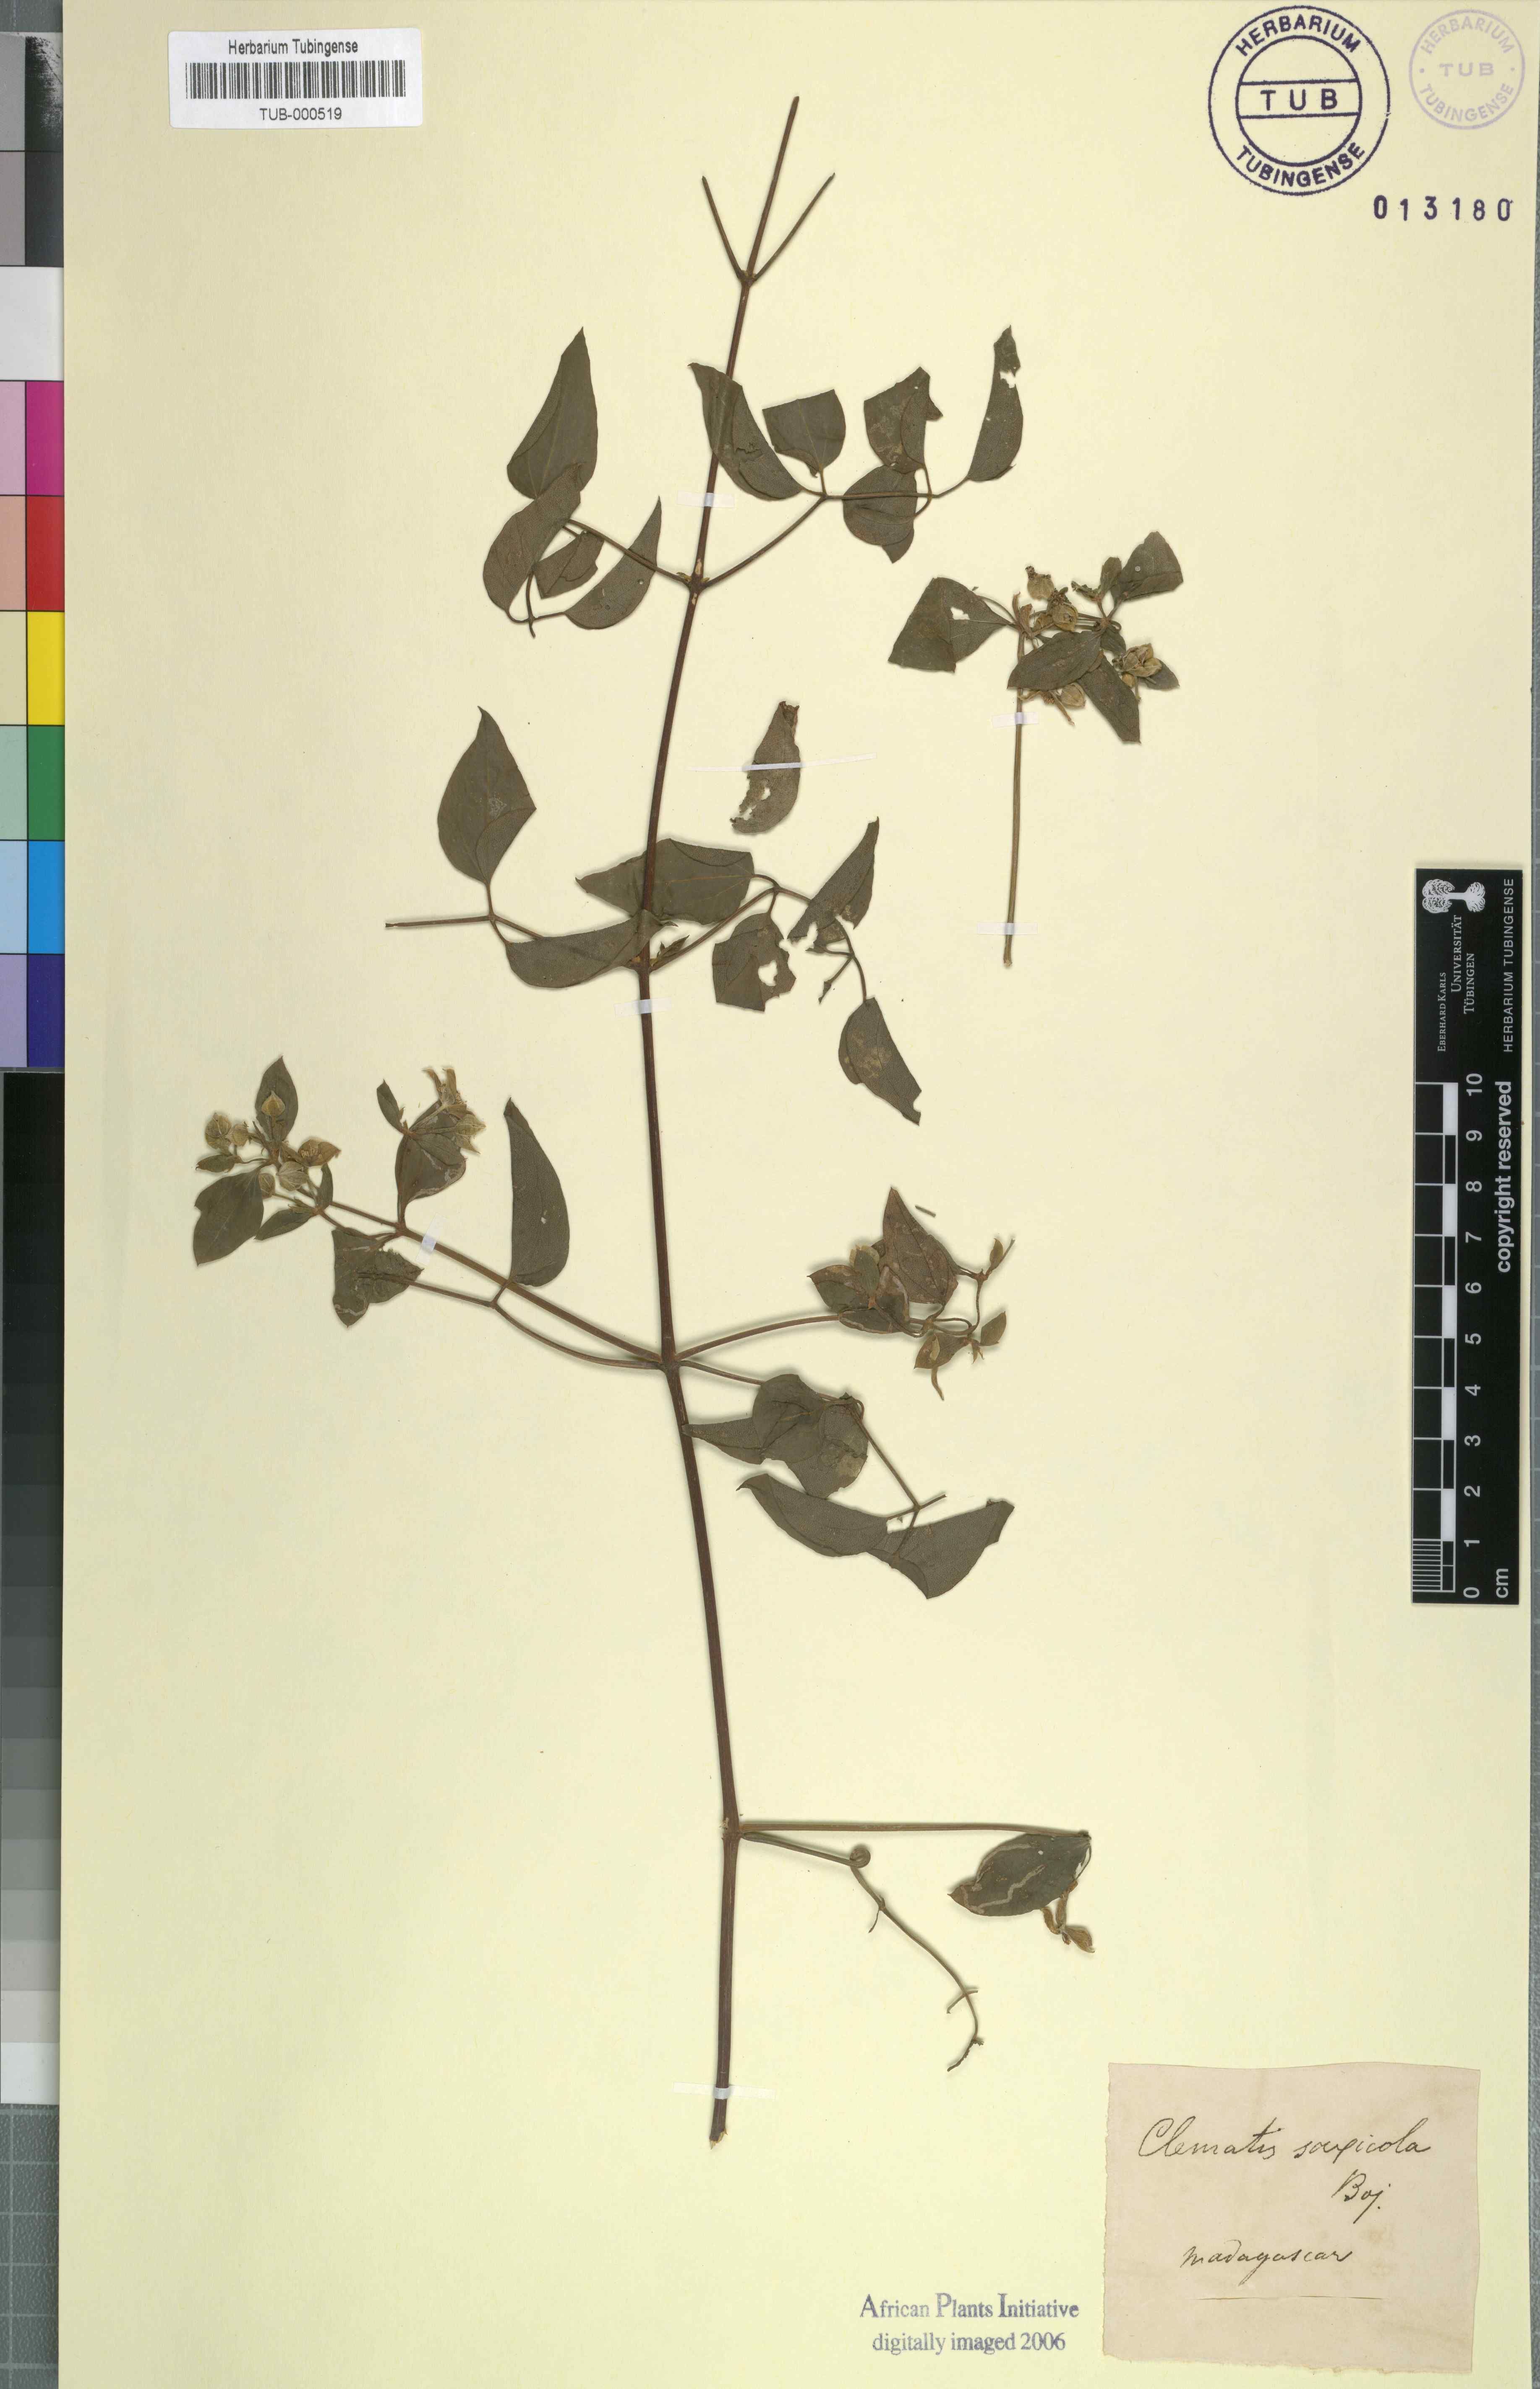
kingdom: Plantae
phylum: Tracheophyta
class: Magnoliopsida
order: Ranunculales
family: Ranunculaceae
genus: Clematis
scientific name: Clematis ibarensis
